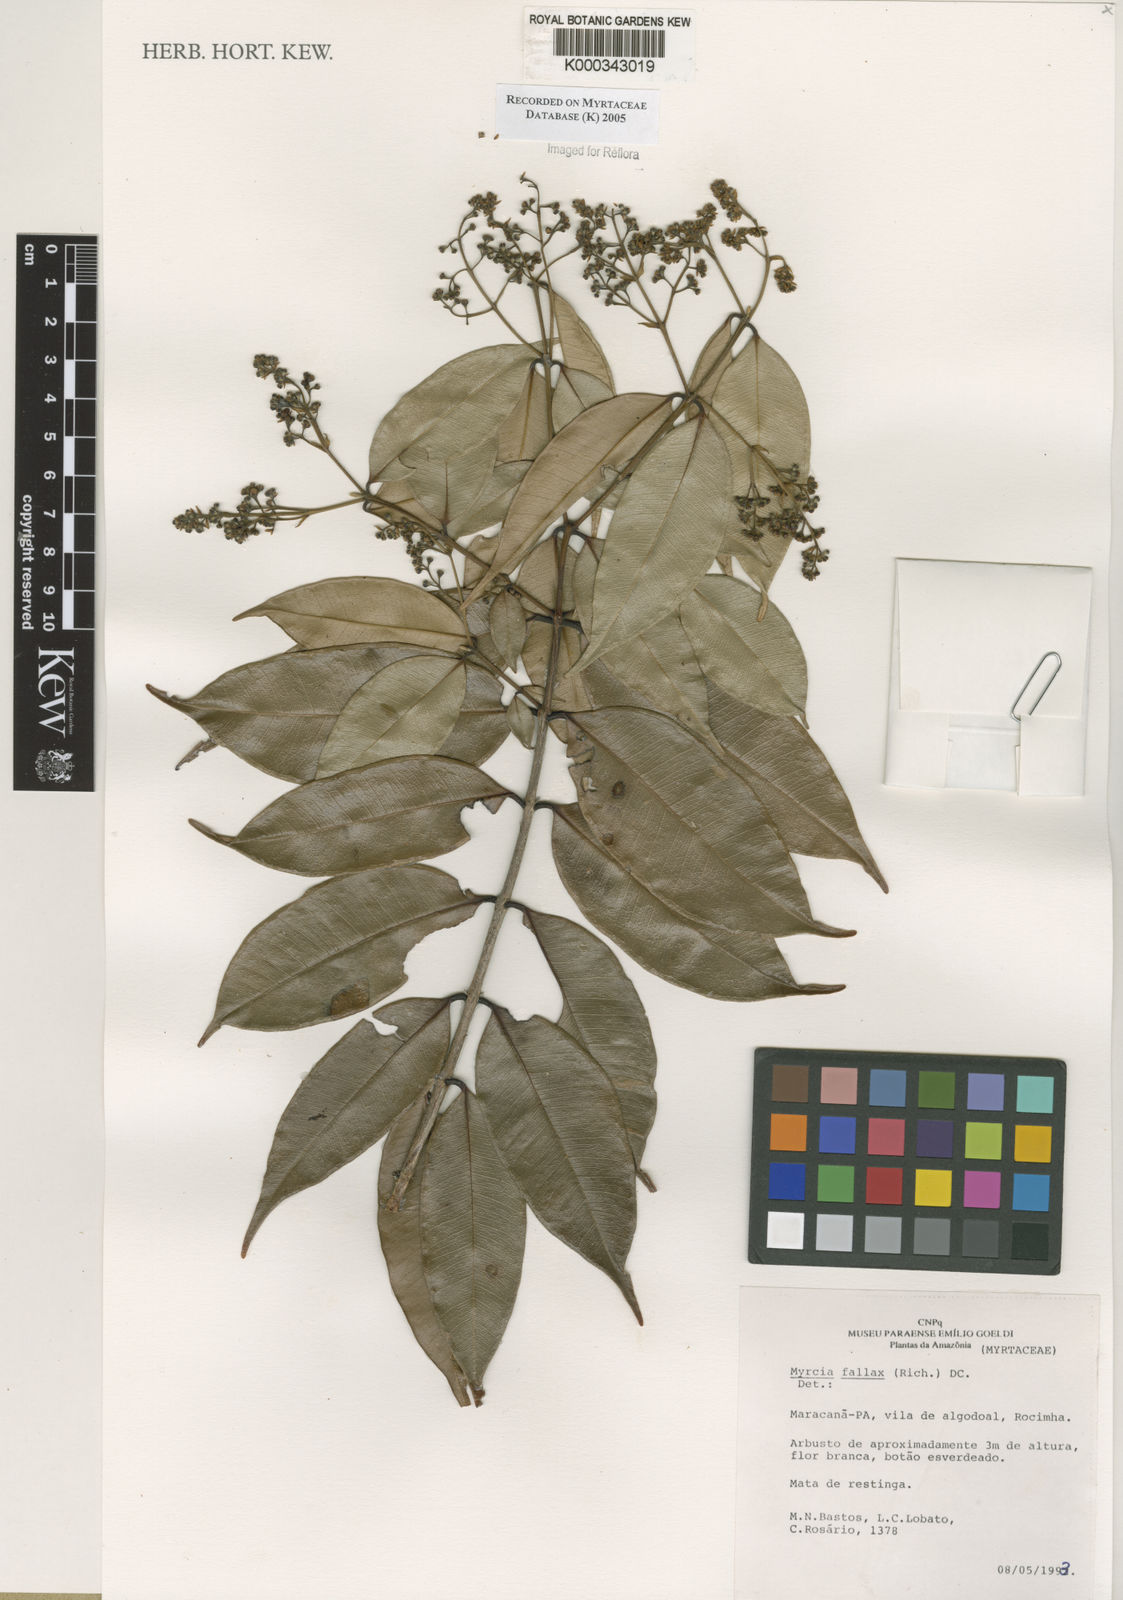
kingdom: Plantae
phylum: Tracheophyta
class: Magnoliopsida
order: Myrtales
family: Myrtaceae
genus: Myrcia
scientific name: Myrcia splendens
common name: Surinam cherry
